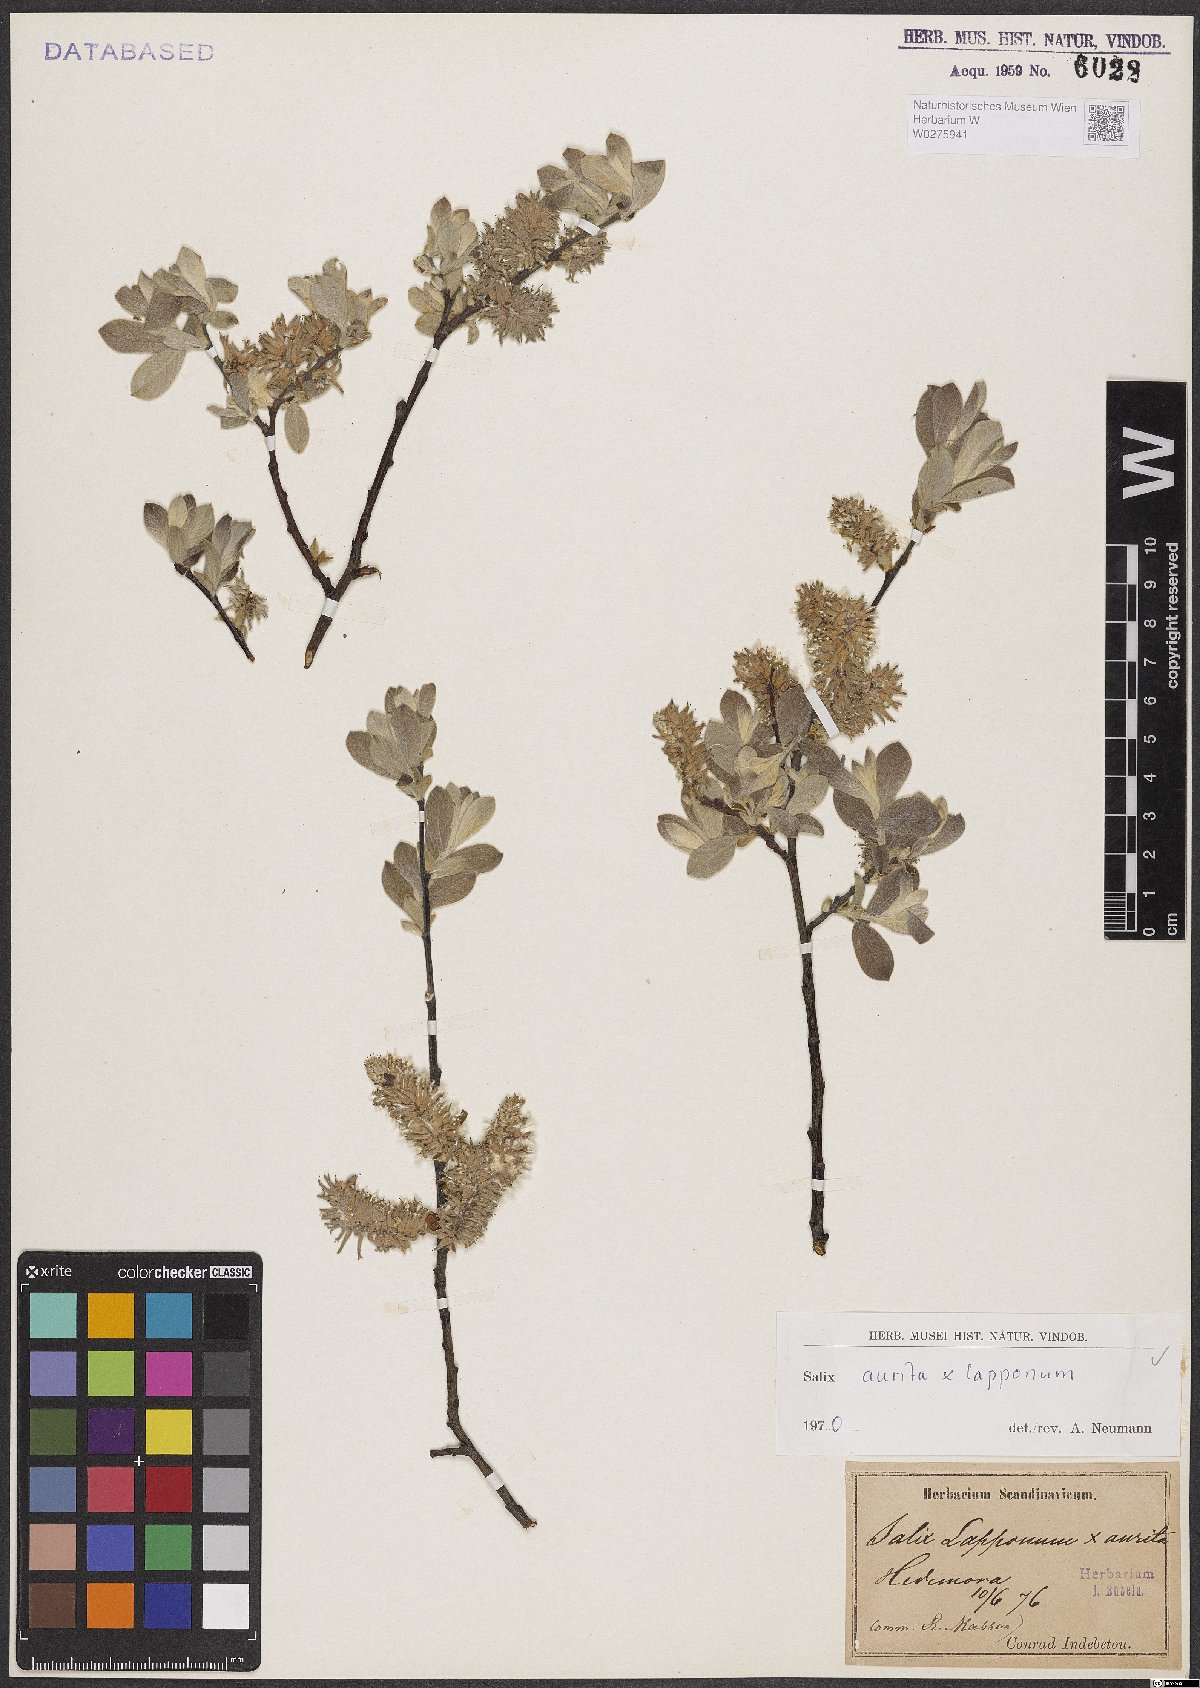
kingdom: Plantae
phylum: Tracheophyta
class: Magnoliopsida
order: Malpighiales
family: Salicaceae
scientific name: Salicaceae
